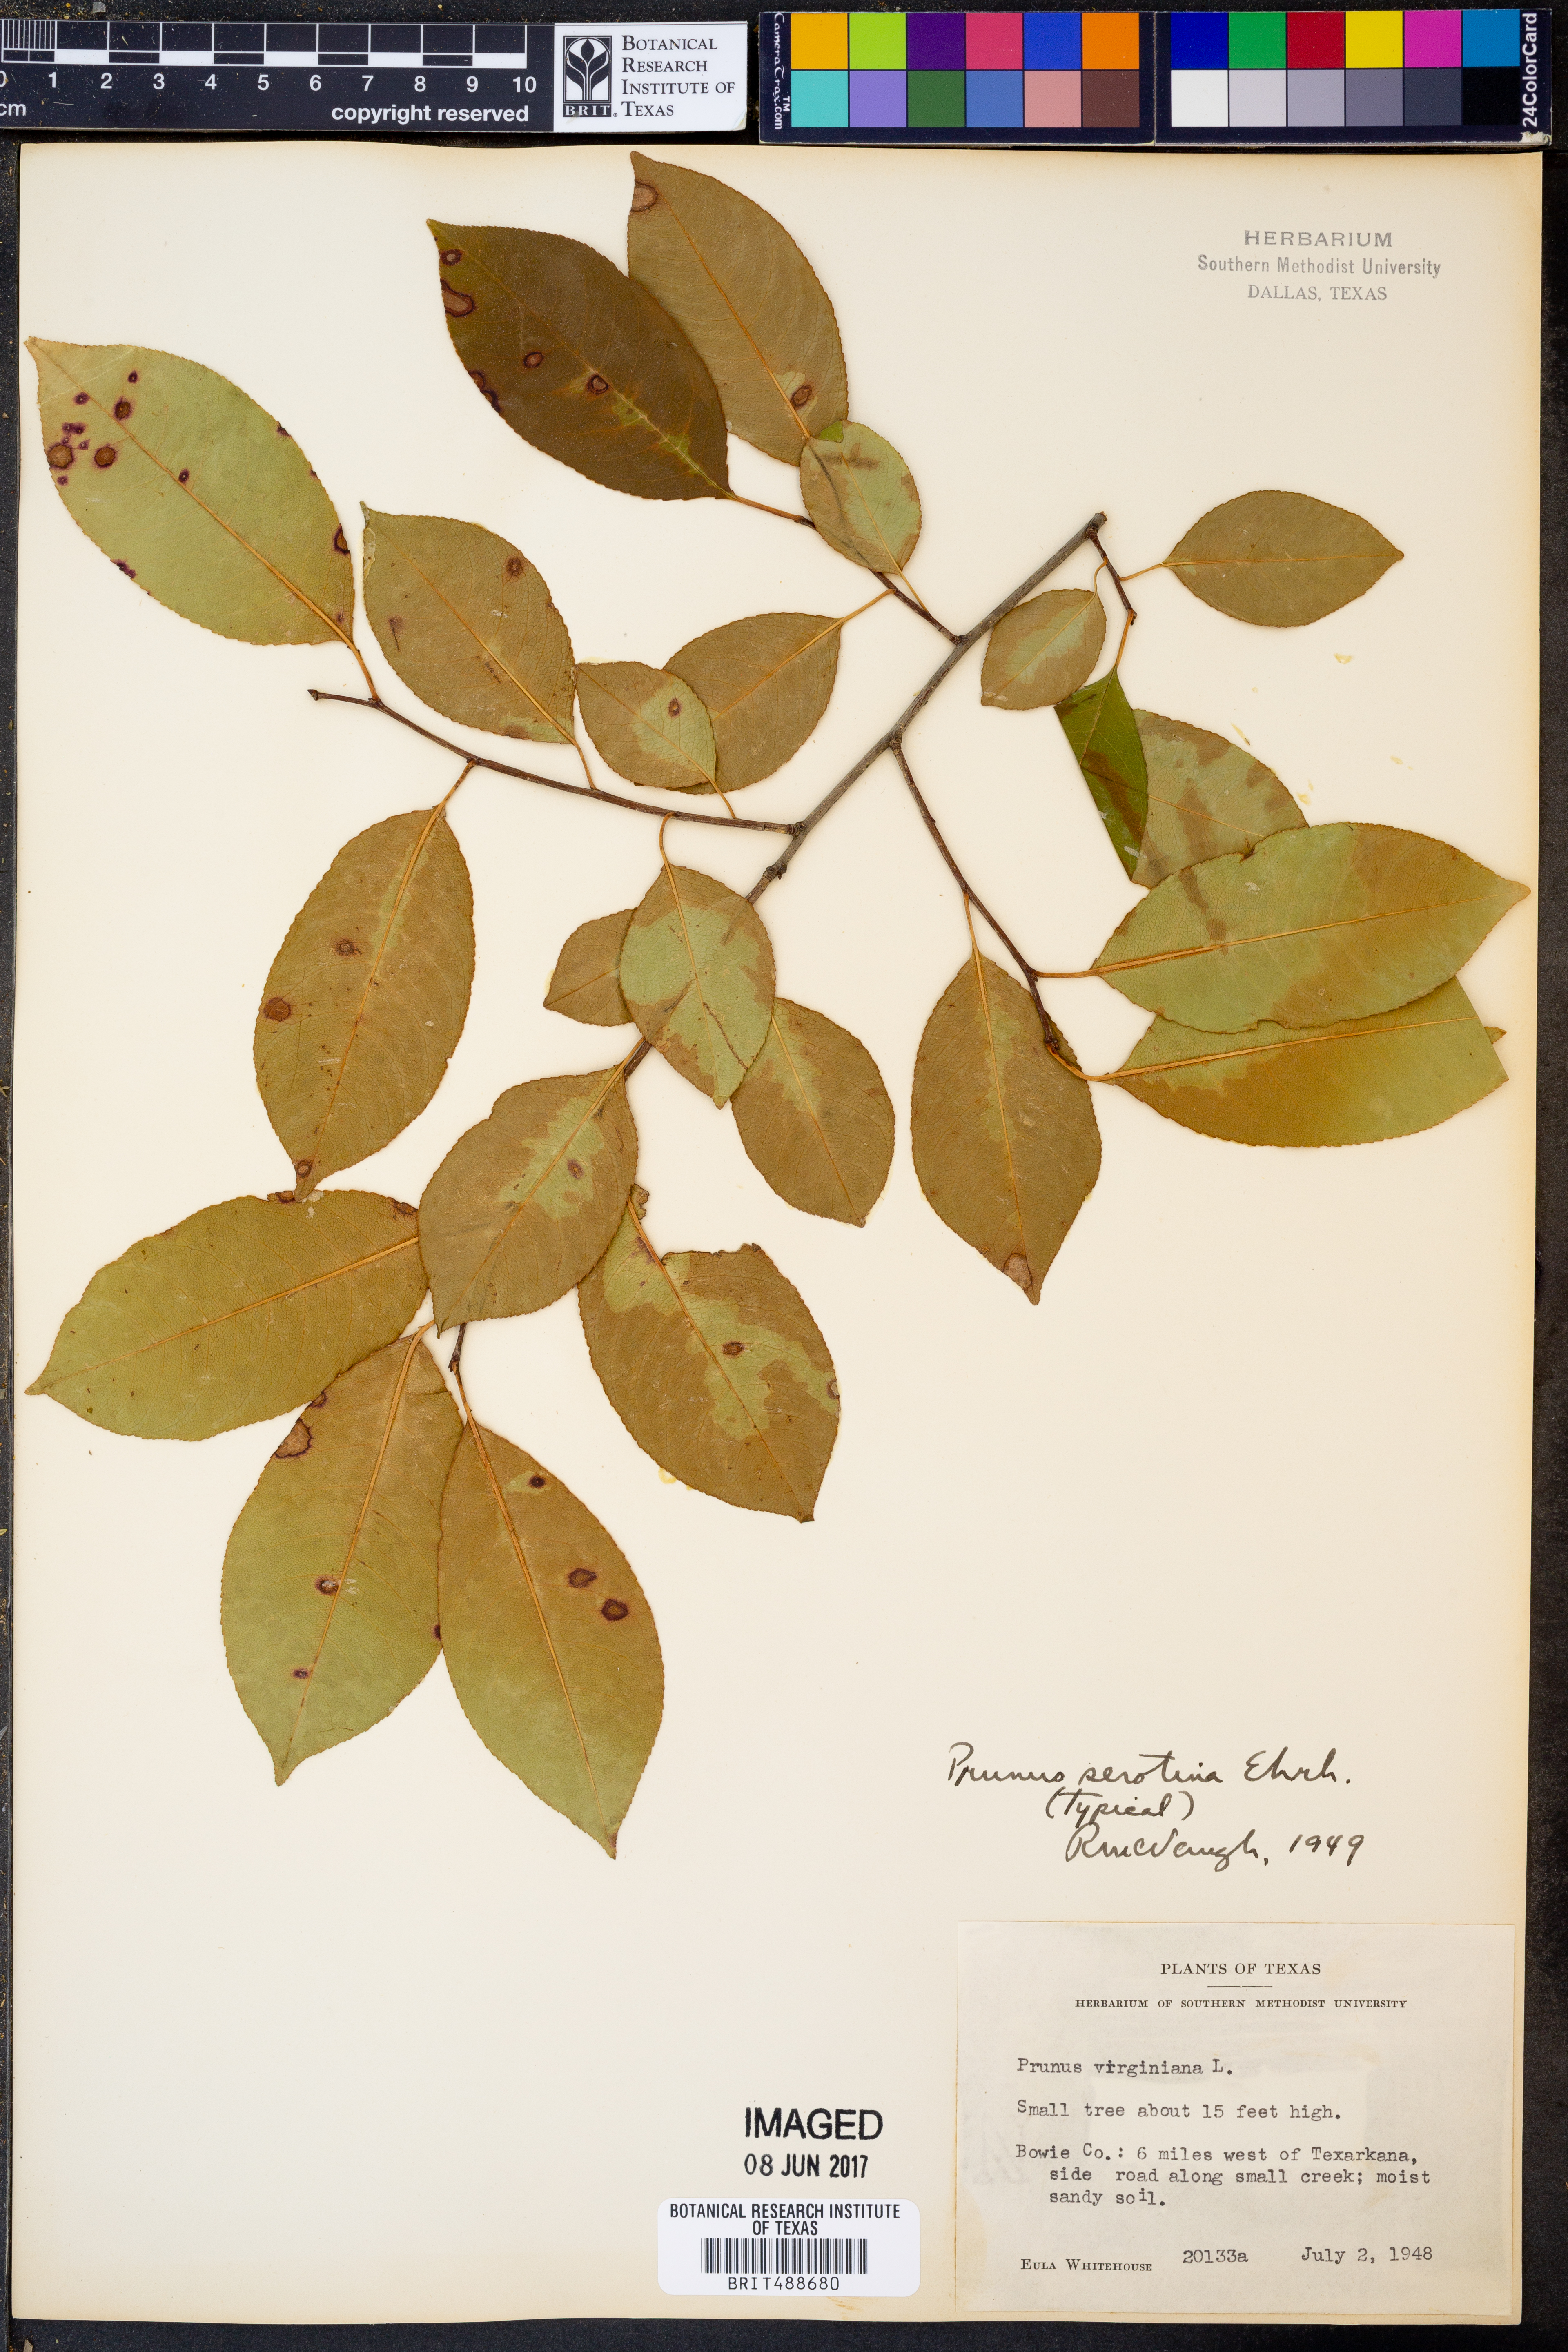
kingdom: Plantae
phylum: Tracheophyta
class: Magnoliopsida
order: Rosales
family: Rosaceae
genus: Prunus
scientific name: Prunus serotina
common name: Black cherry
